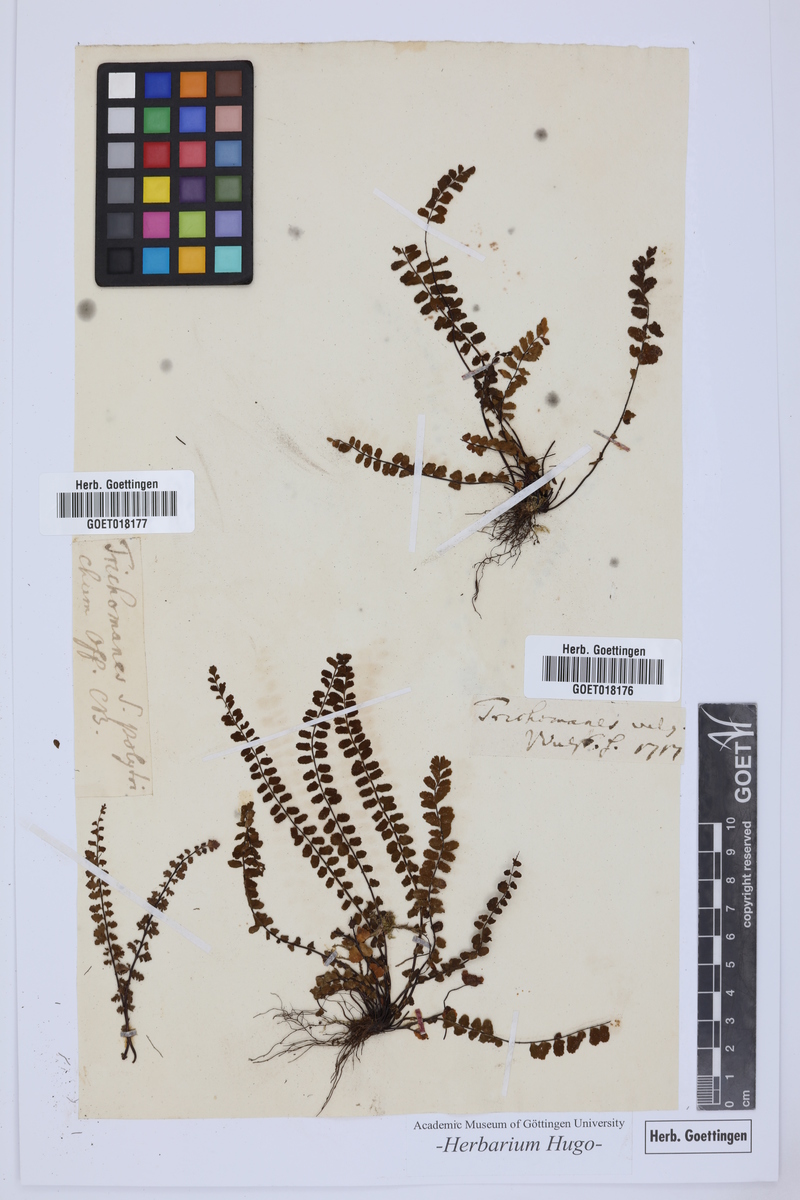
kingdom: Plantae
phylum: Tracheophyta
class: Polypodiopsida
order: Hymenophyllales
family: Hymenophyllaceae
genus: Trichomanes
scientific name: Trichomanes
